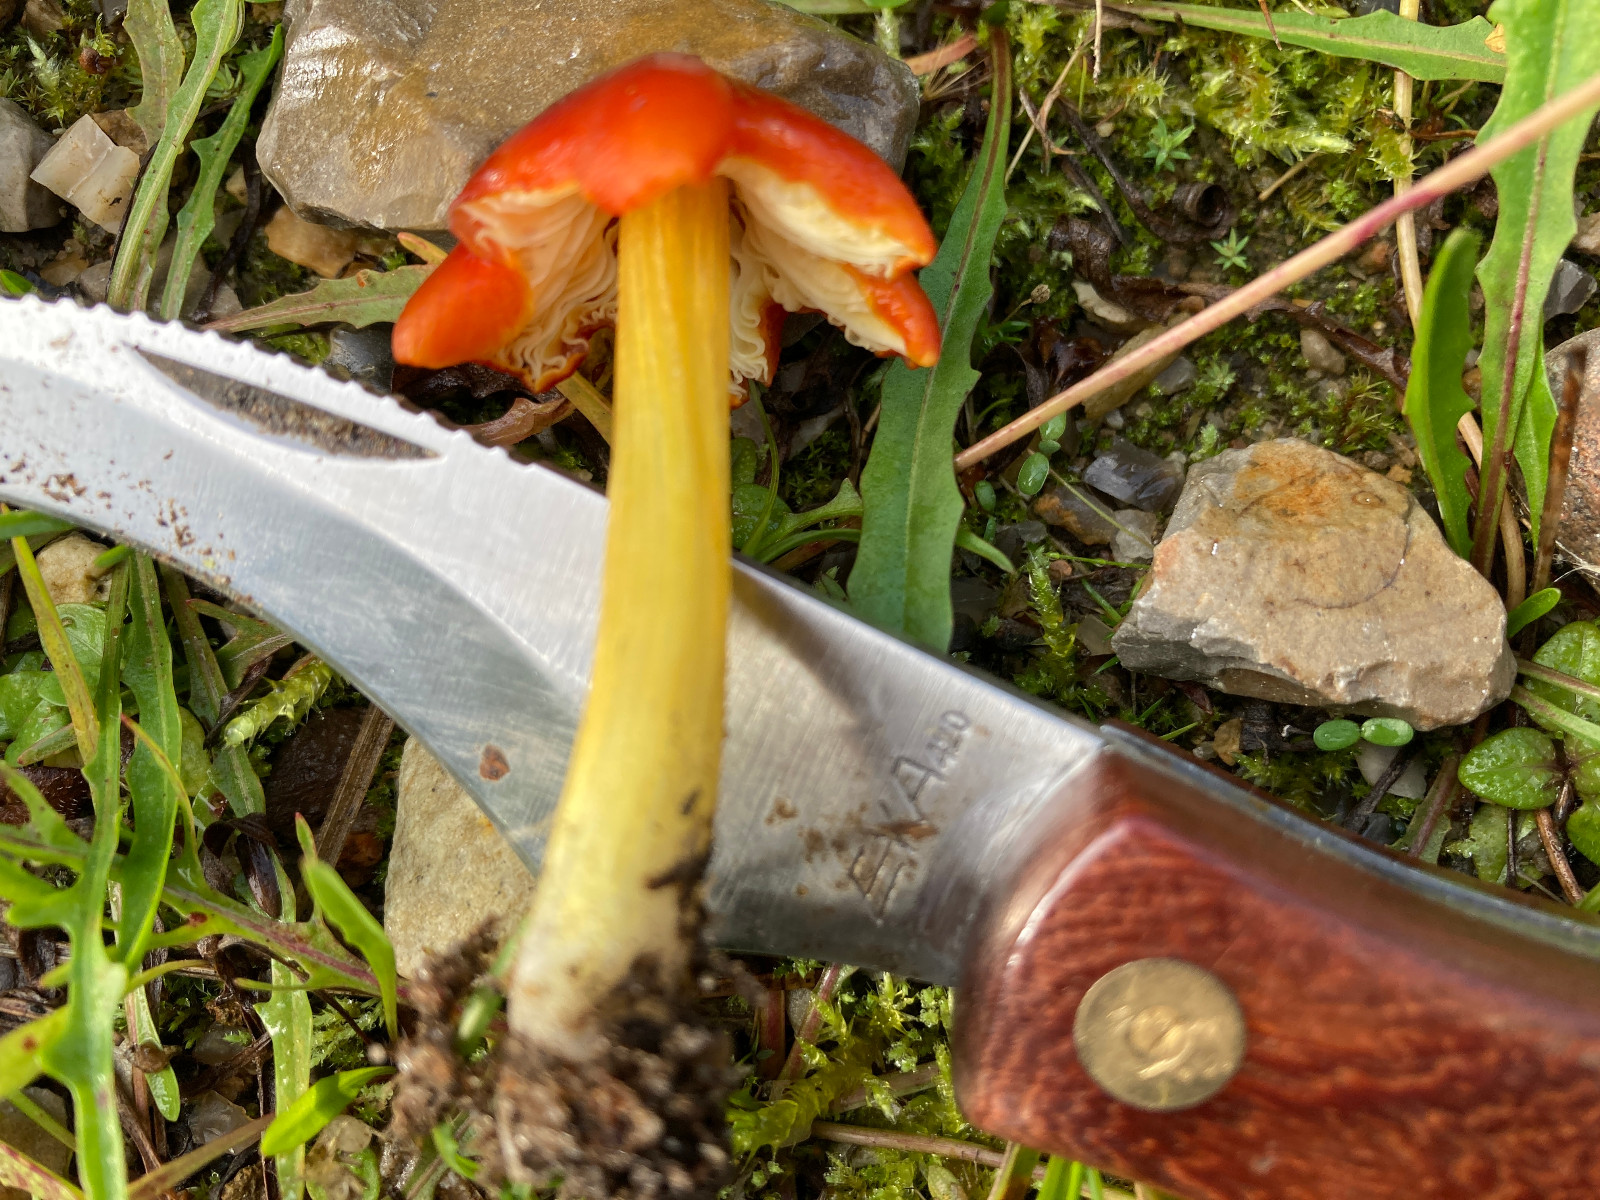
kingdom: Fungi
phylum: Basidiomycota
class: Agaricomycetes
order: Agaricales
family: Hygrophoraceae
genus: Hygrocybe
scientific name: Hygrocybe conica
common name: kegle-vokshat
